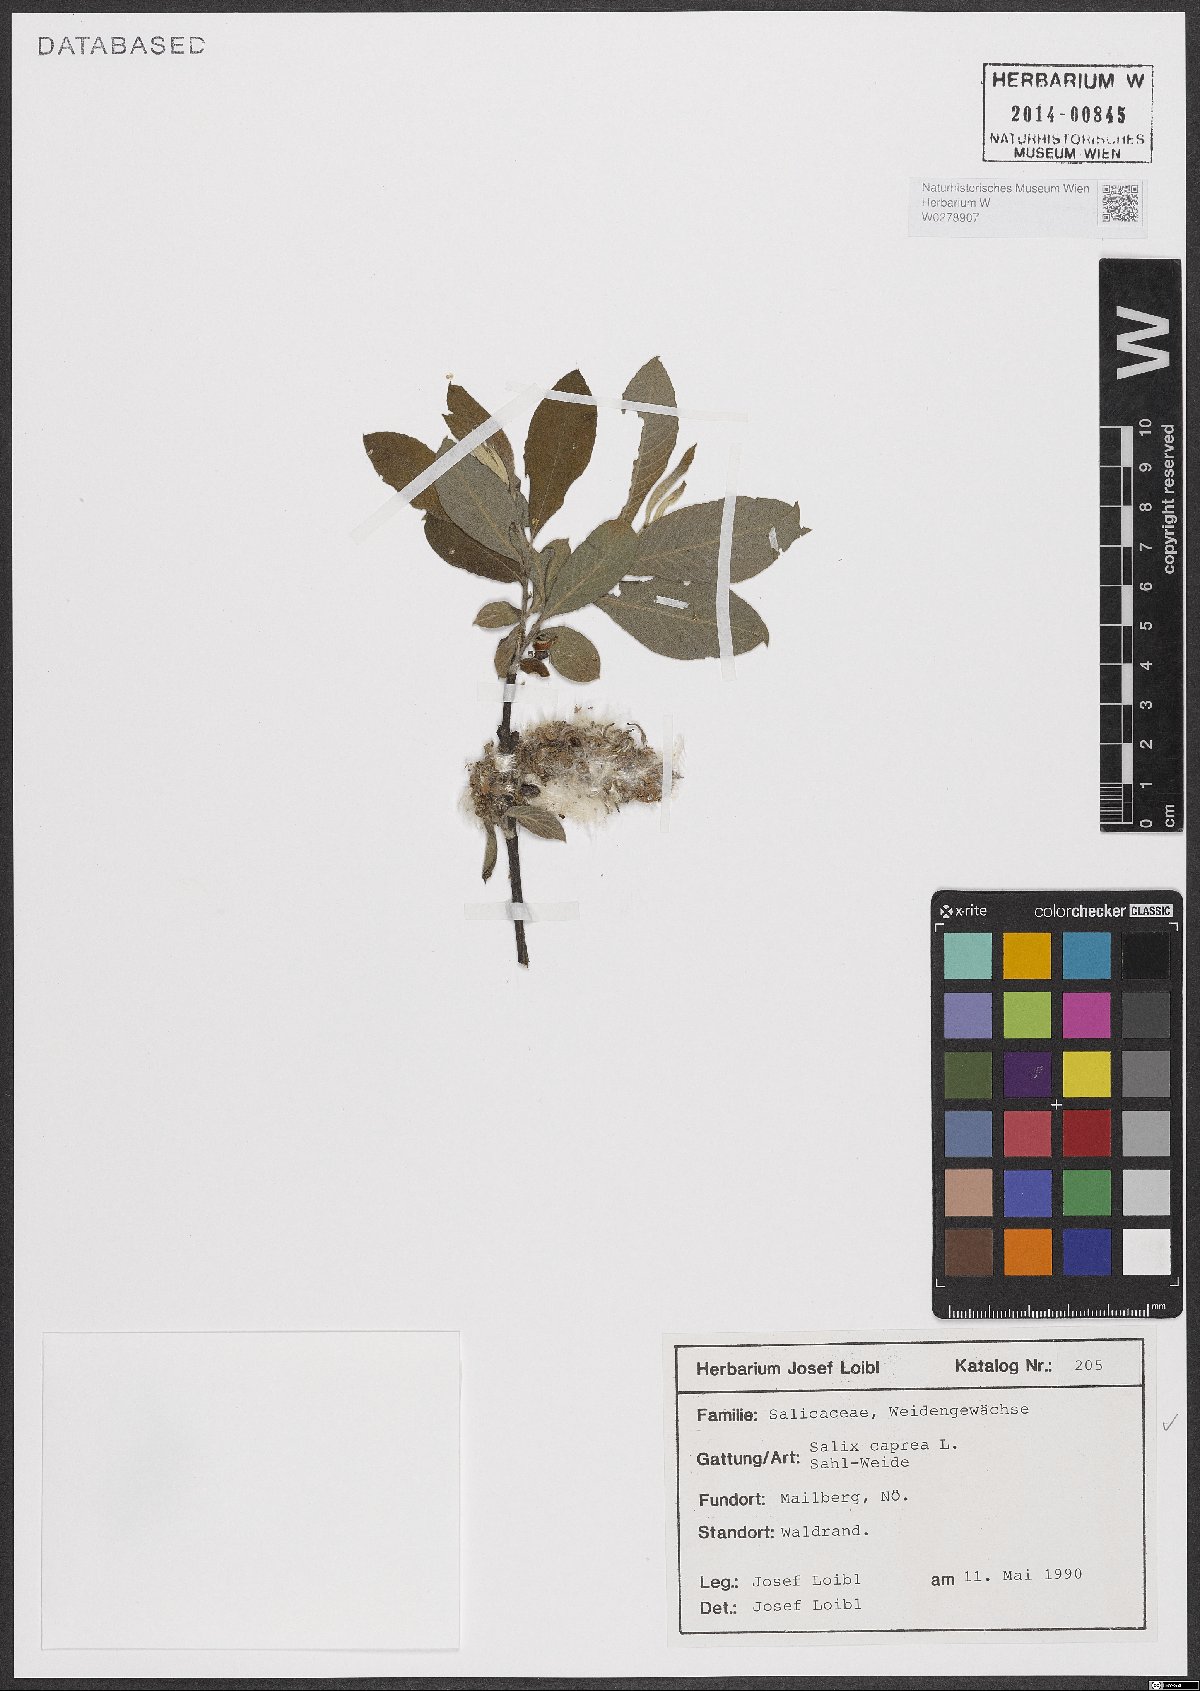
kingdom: Plantae
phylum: Tracheophyta
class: Magnoliopsida
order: Malpighiales
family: Salicaceae
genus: Salix
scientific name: Salix caprea
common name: Goat willow
